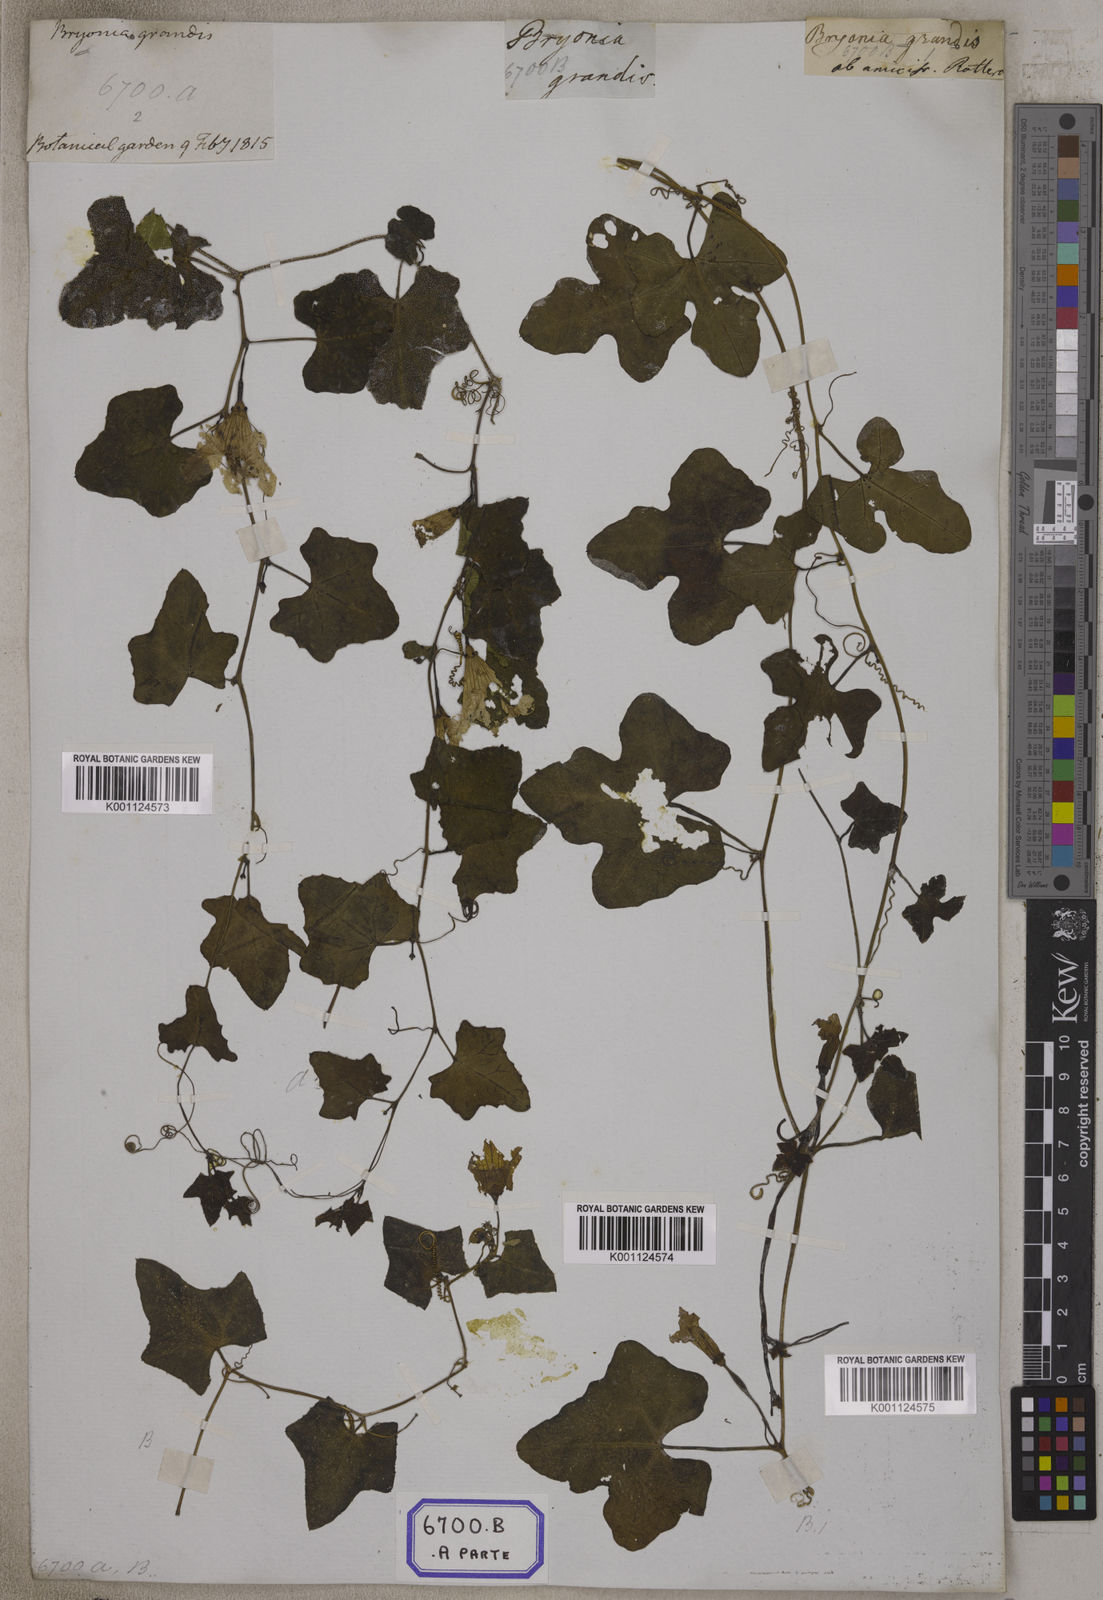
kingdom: Plantae
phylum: Tracheophyta
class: Magnoliopsida
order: Cucurbitales
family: Cucurbitaceae
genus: Bryonia
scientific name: Bryonia
